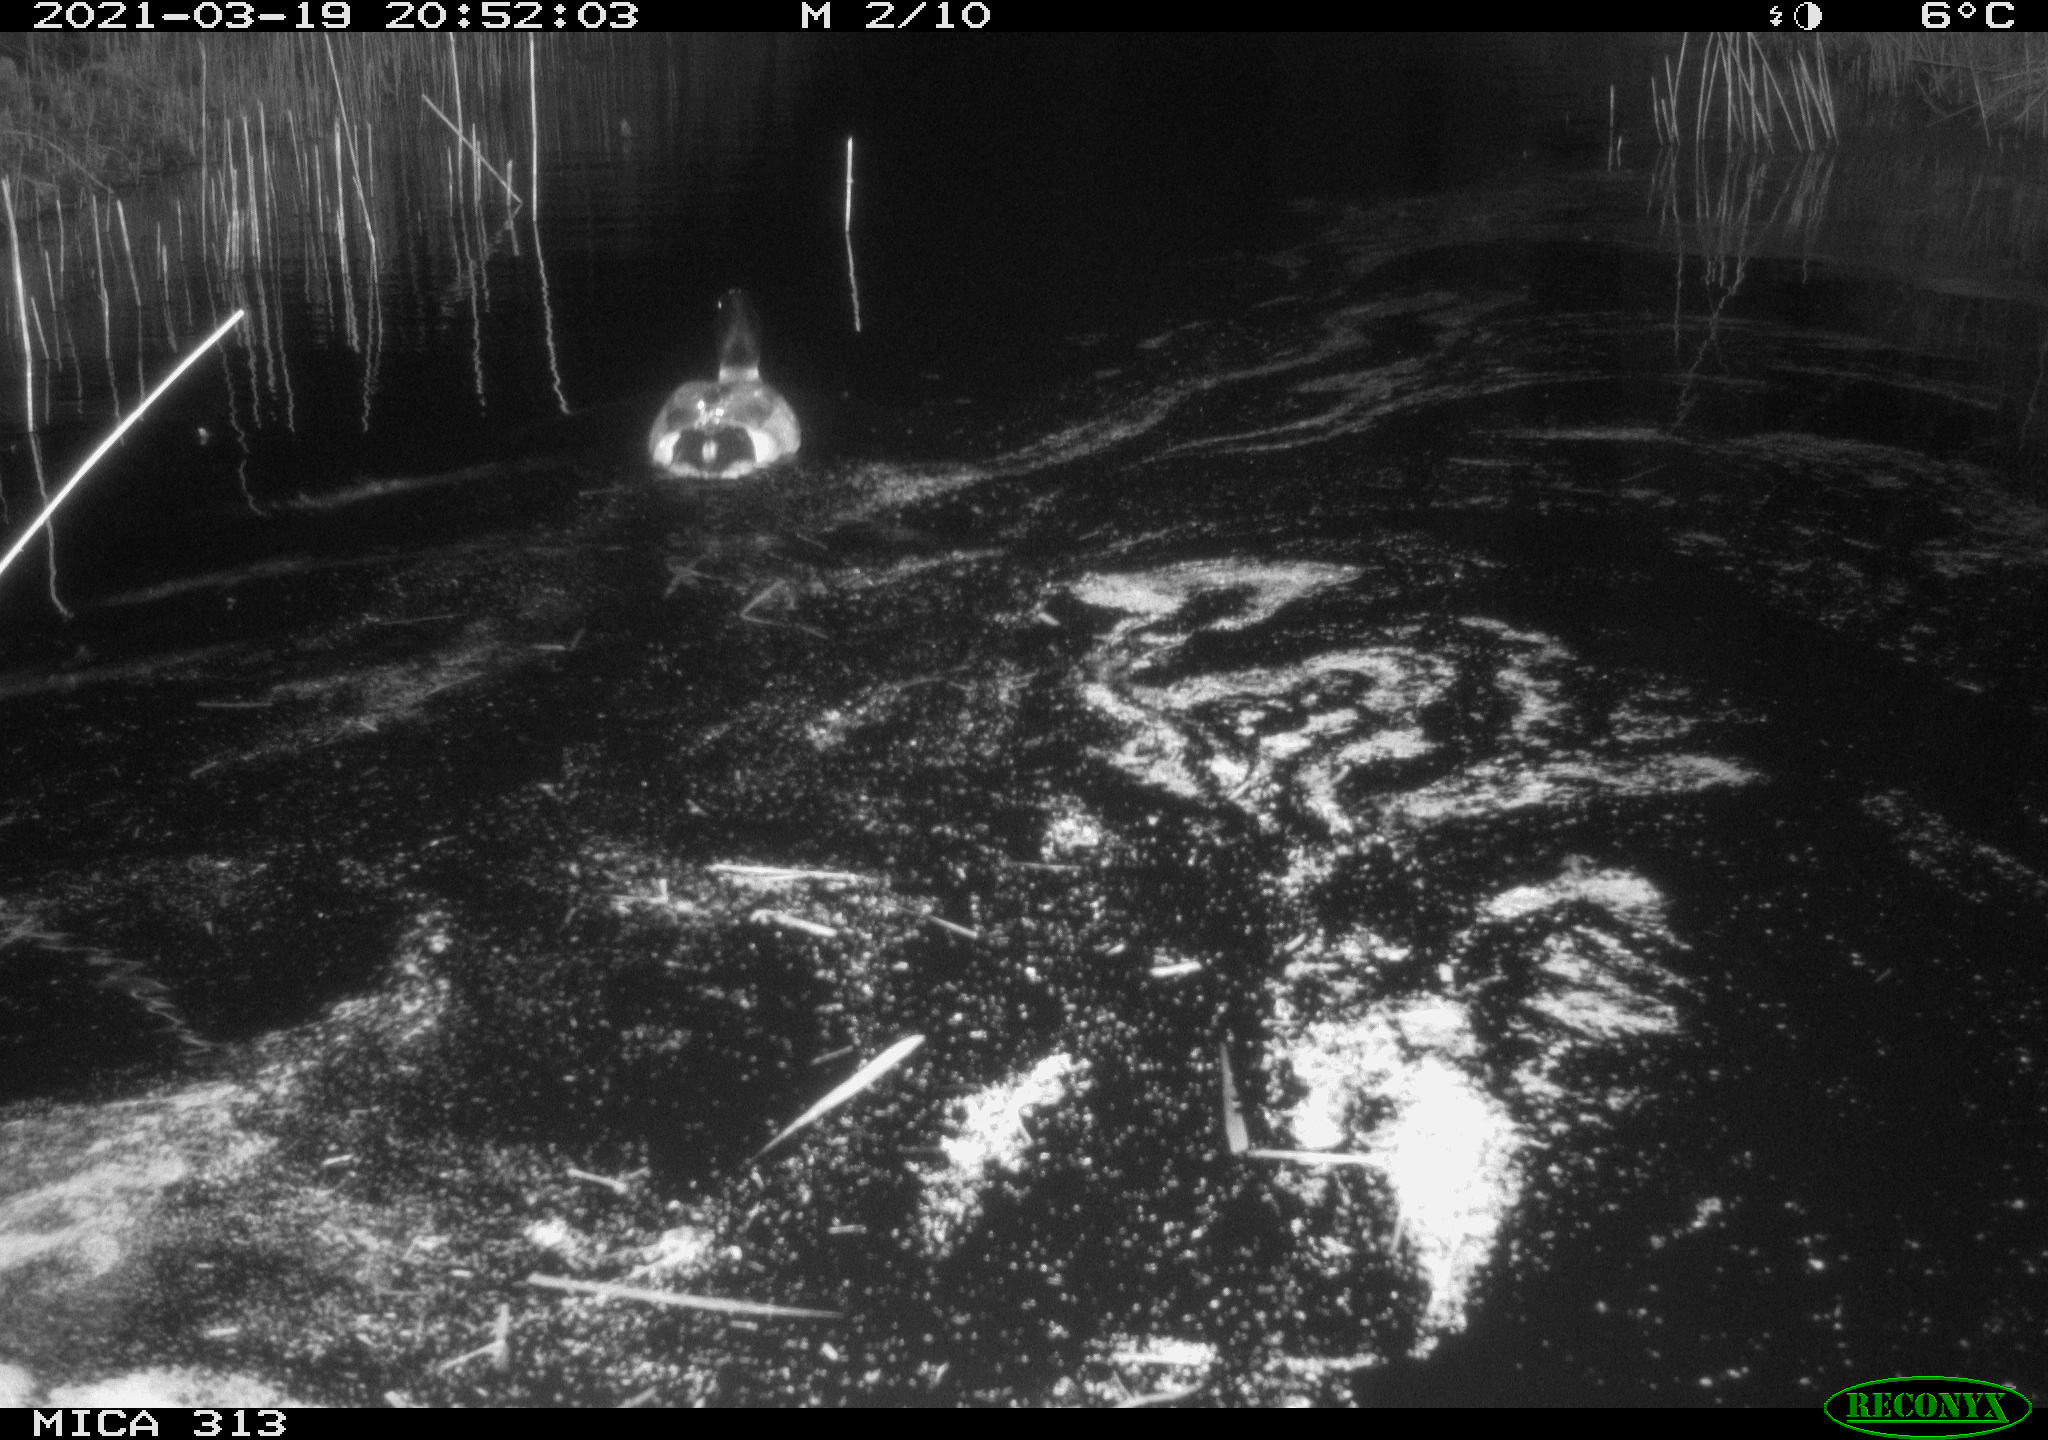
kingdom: Animalia
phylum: Chordata
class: Aves
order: Anseriformes
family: Anatidae
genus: Anas
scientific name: Anas platyrhynchos
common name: Mallard
